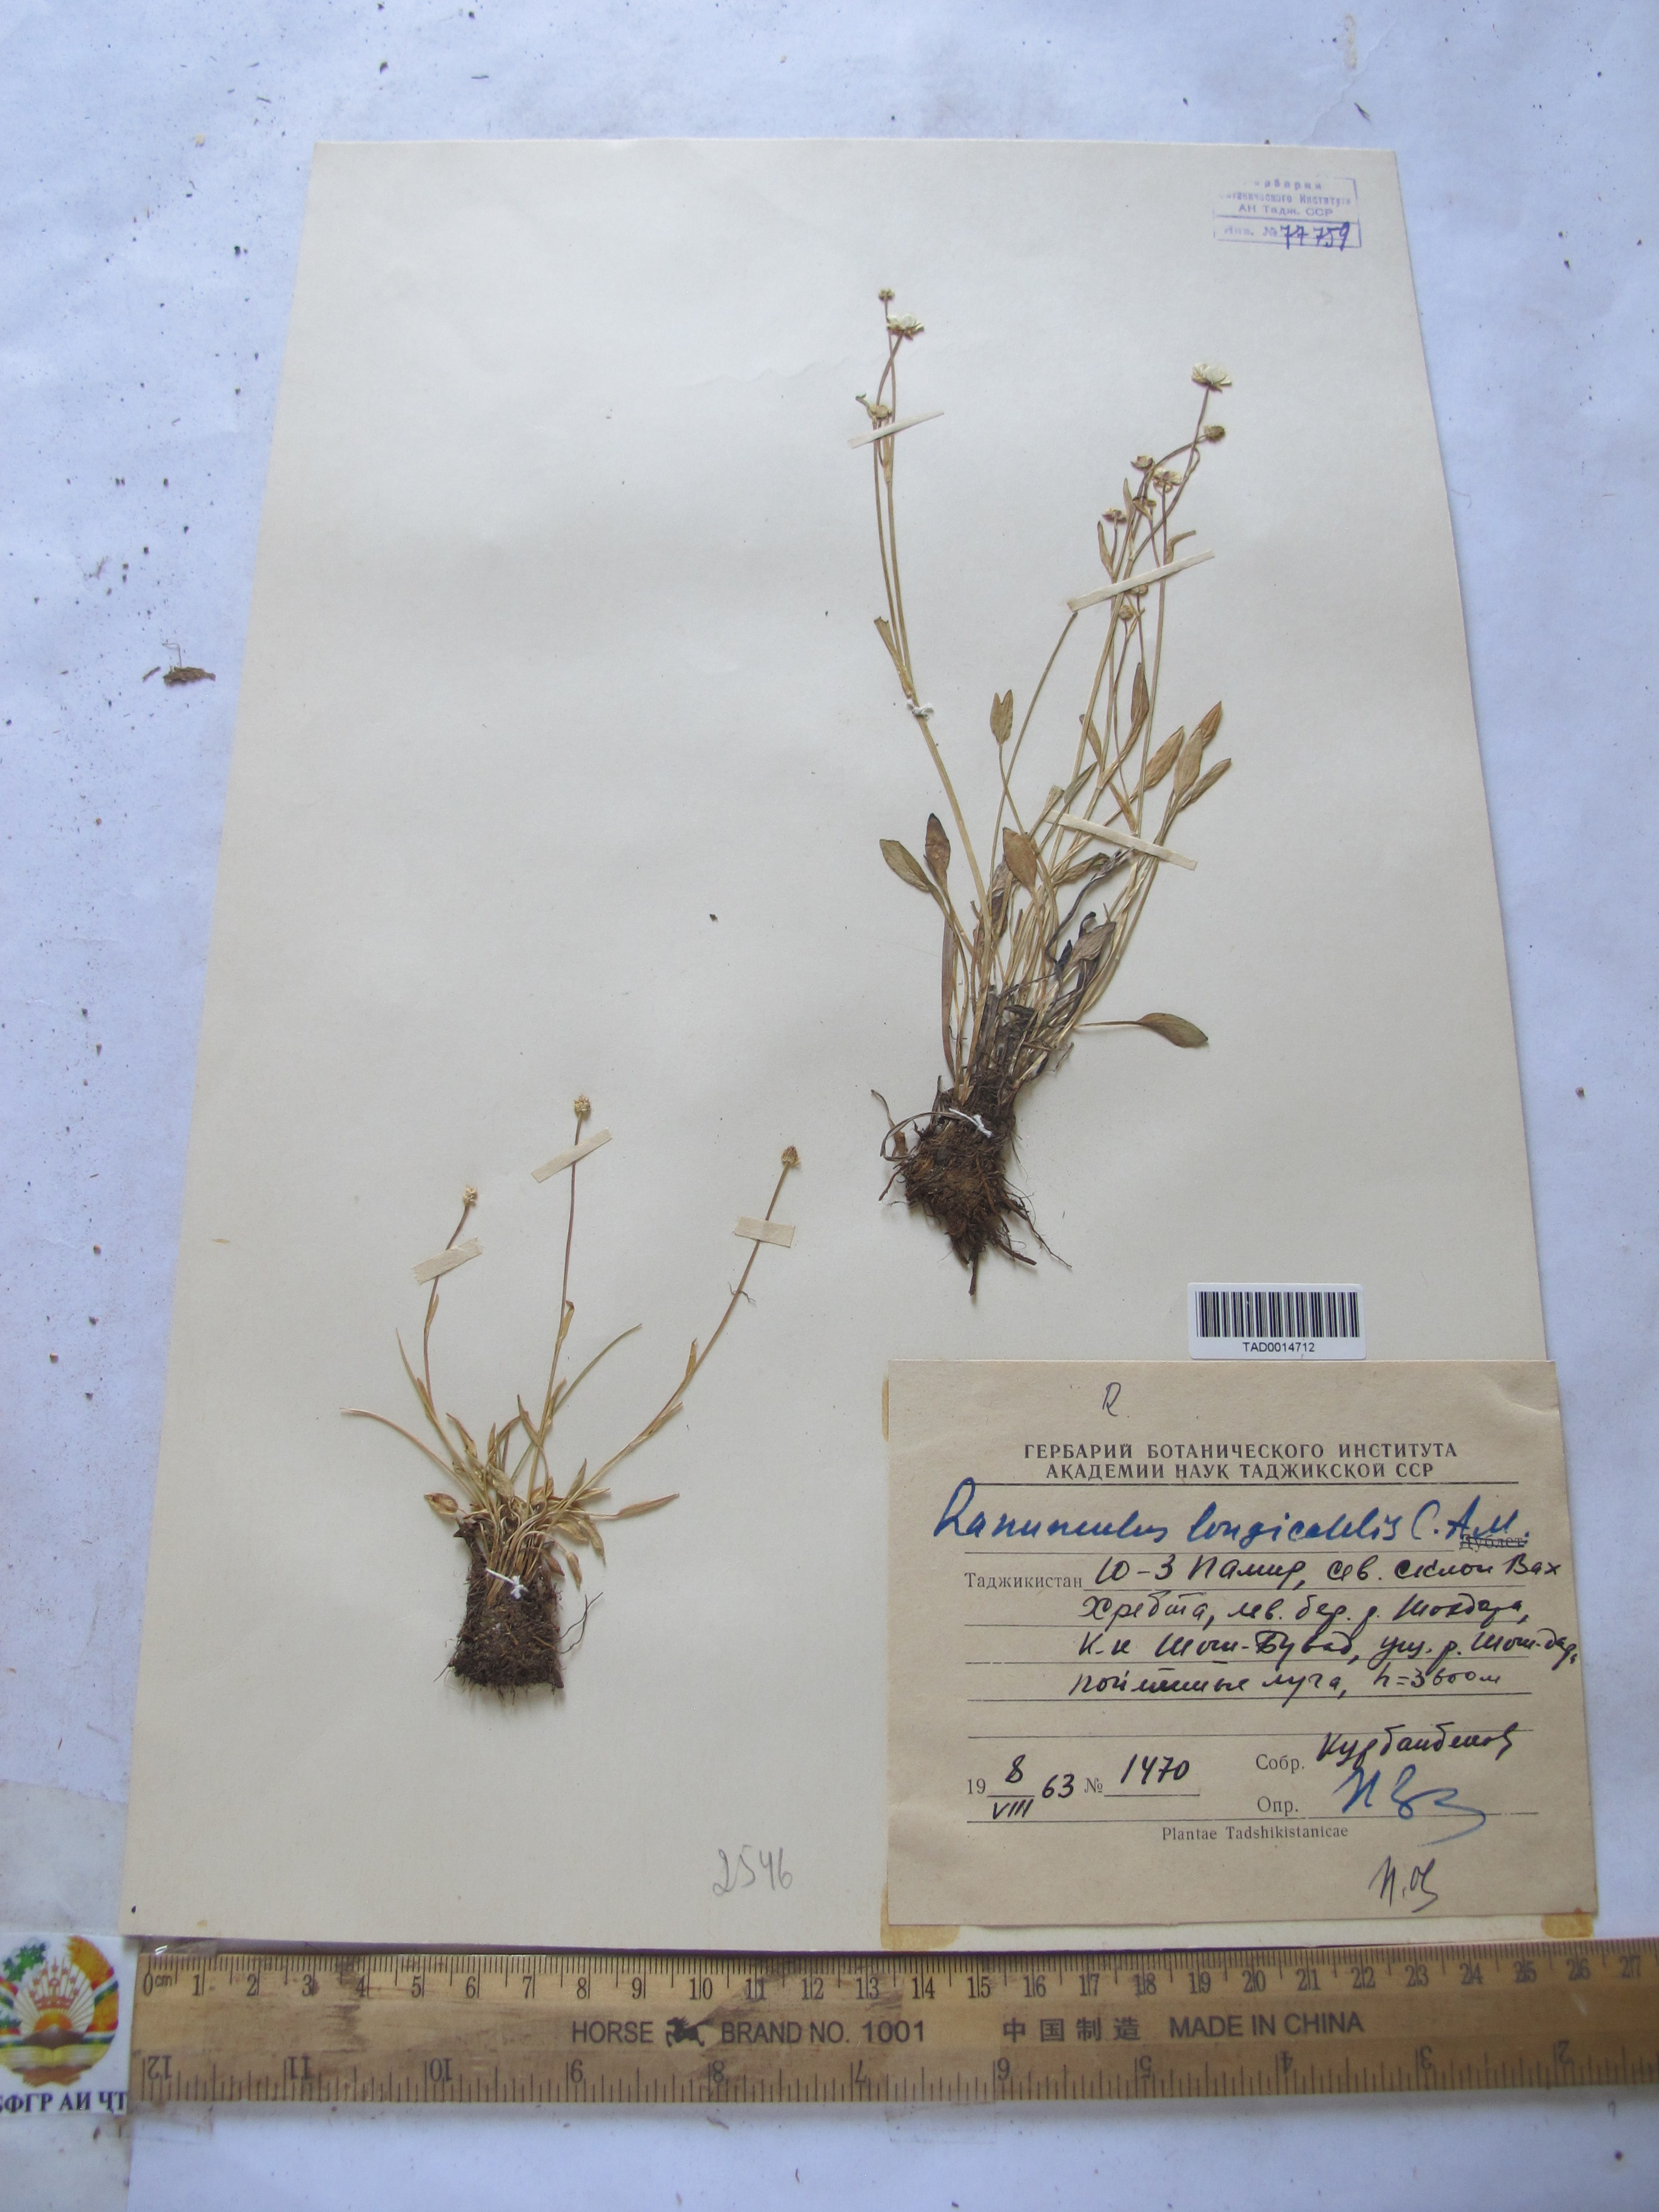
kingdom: Plantae
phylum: Tracheophyta
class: Magnoliopsida
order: Ranunculales
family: Ranunculaceae
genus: Ranunculus
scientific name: Ranunculus longicaulis
